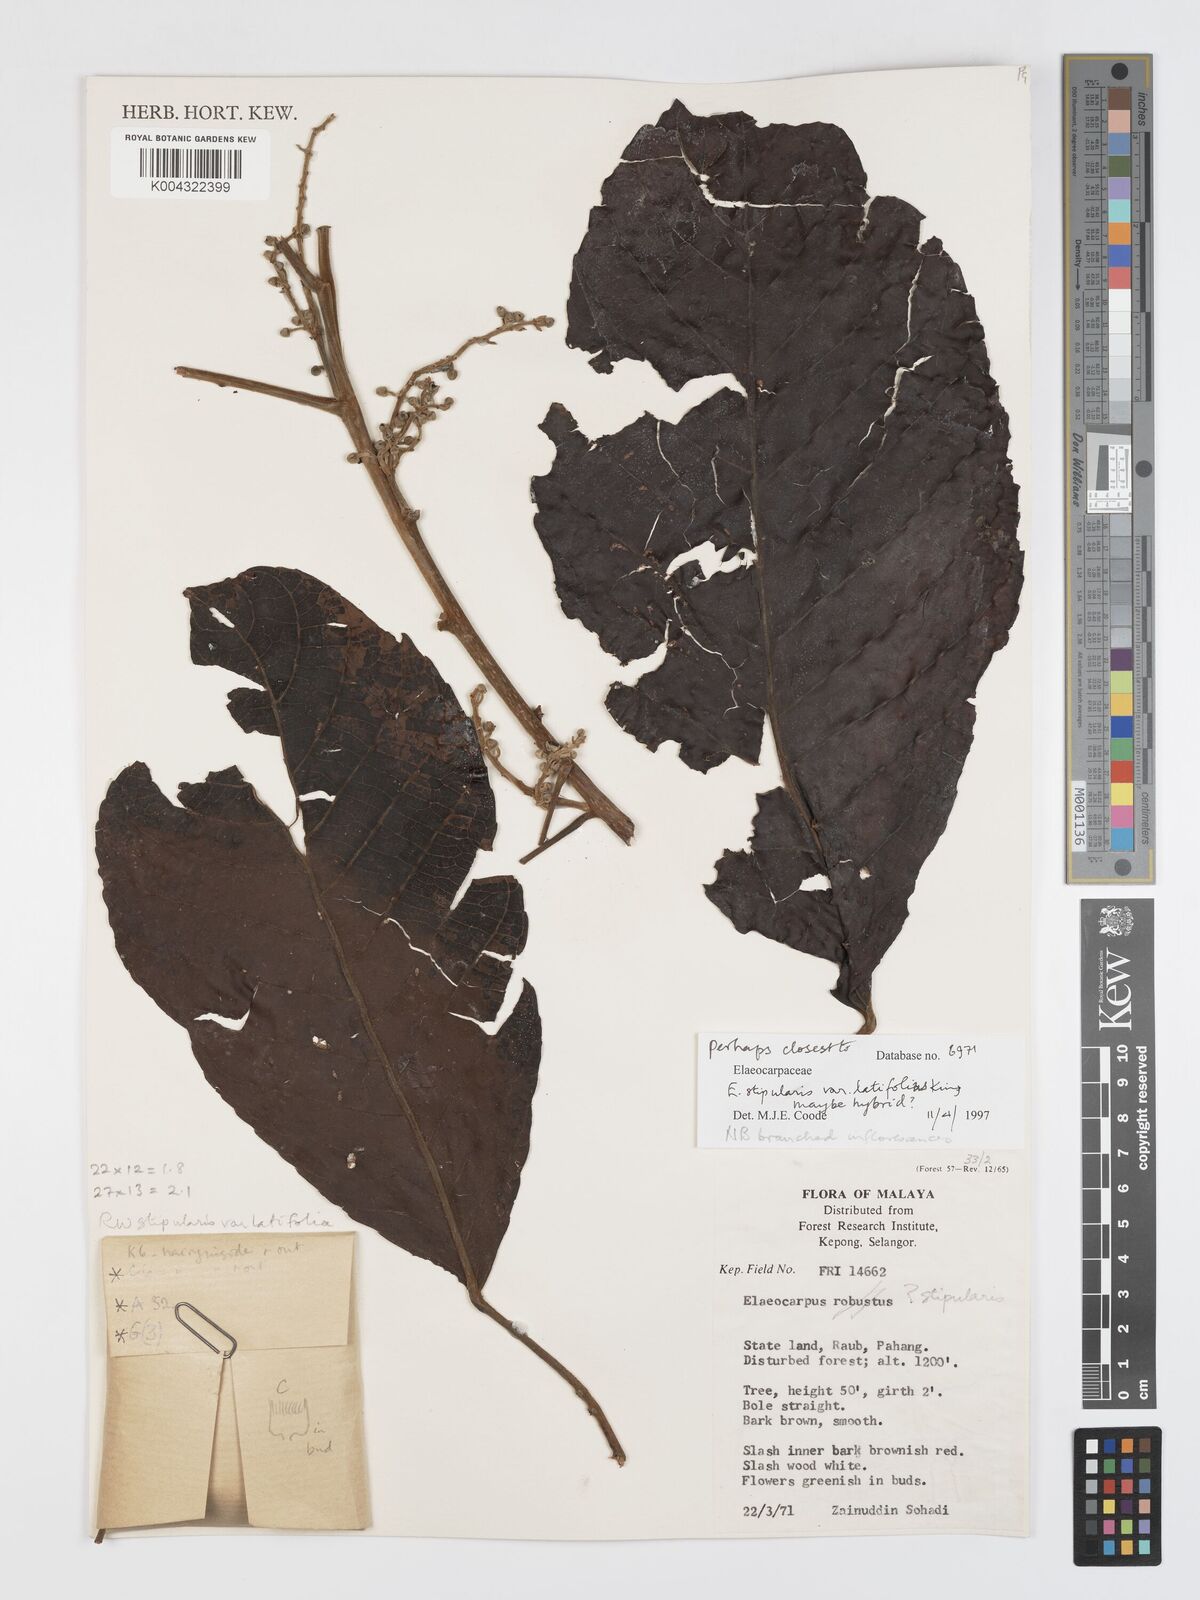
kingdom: Plantae
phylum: Tracheophyta
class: Magnoliopsida
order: Oxalidales
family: Elaeocarpaceae
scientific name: Elaeocarpaceae
